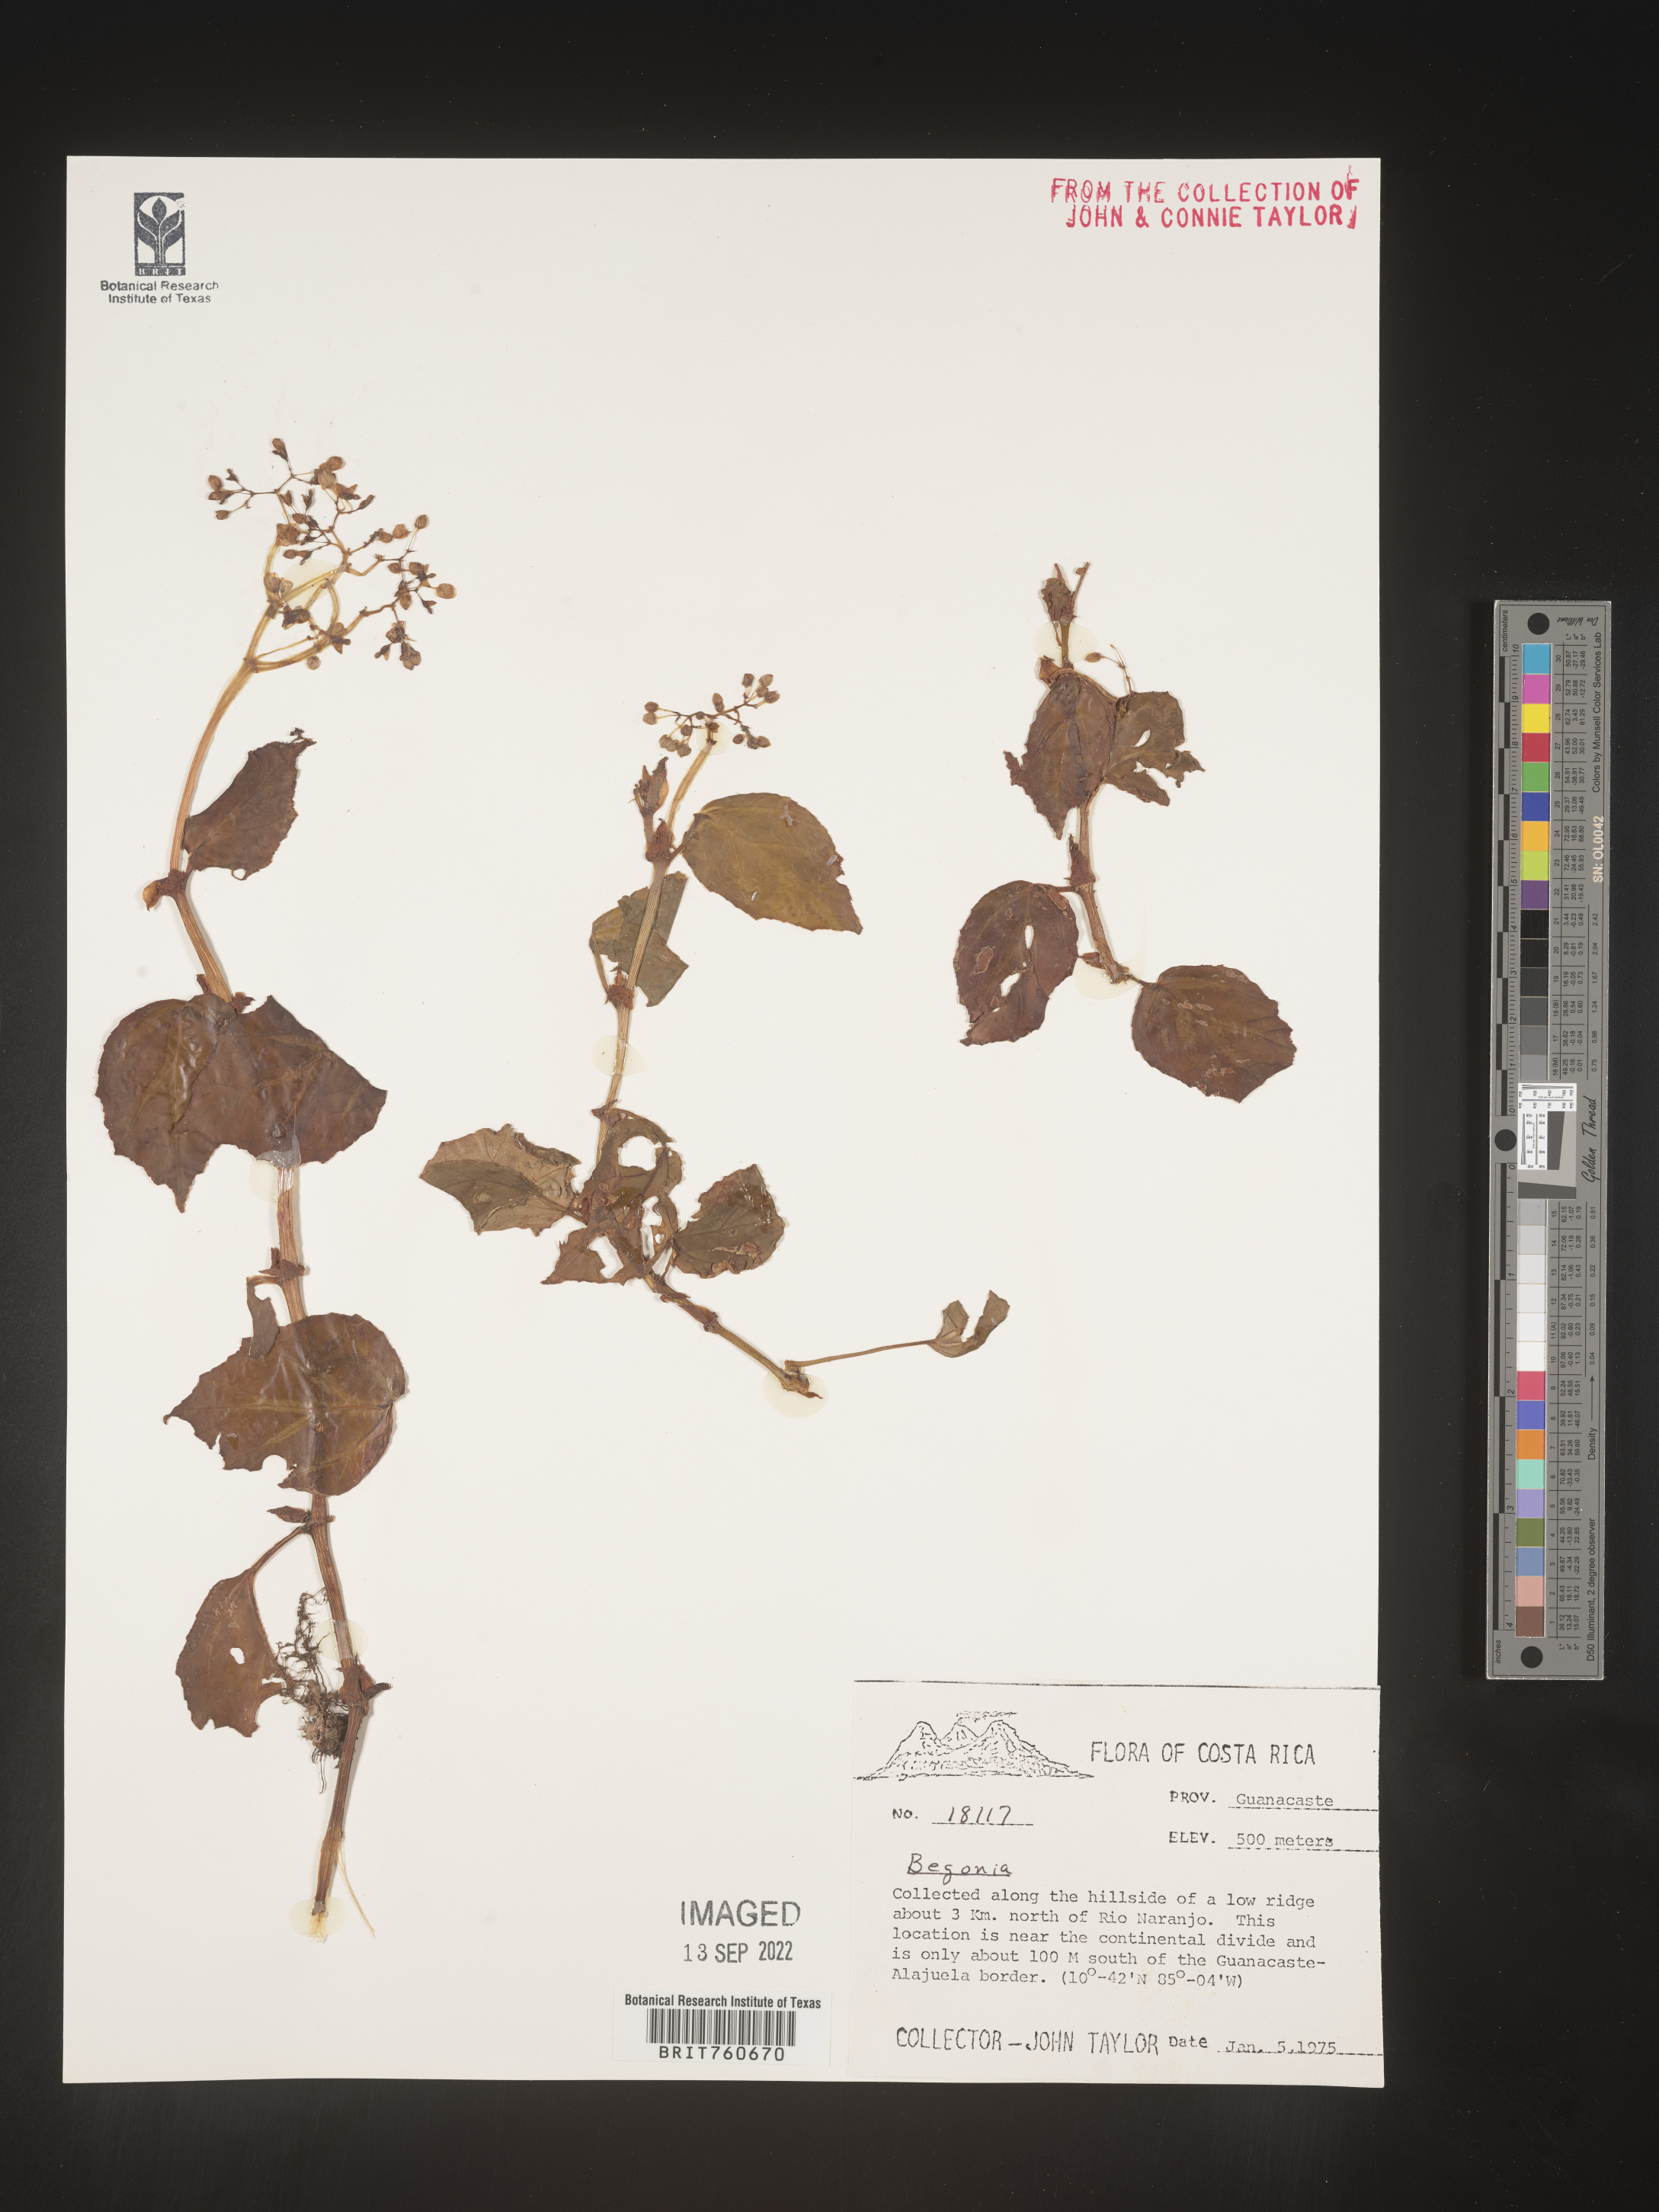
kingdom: Plantae
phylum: Tracheophyta
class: Magnoliopsida
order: Cucurbitales
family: Begoniaceae
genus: Begonia
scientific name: Begonia
